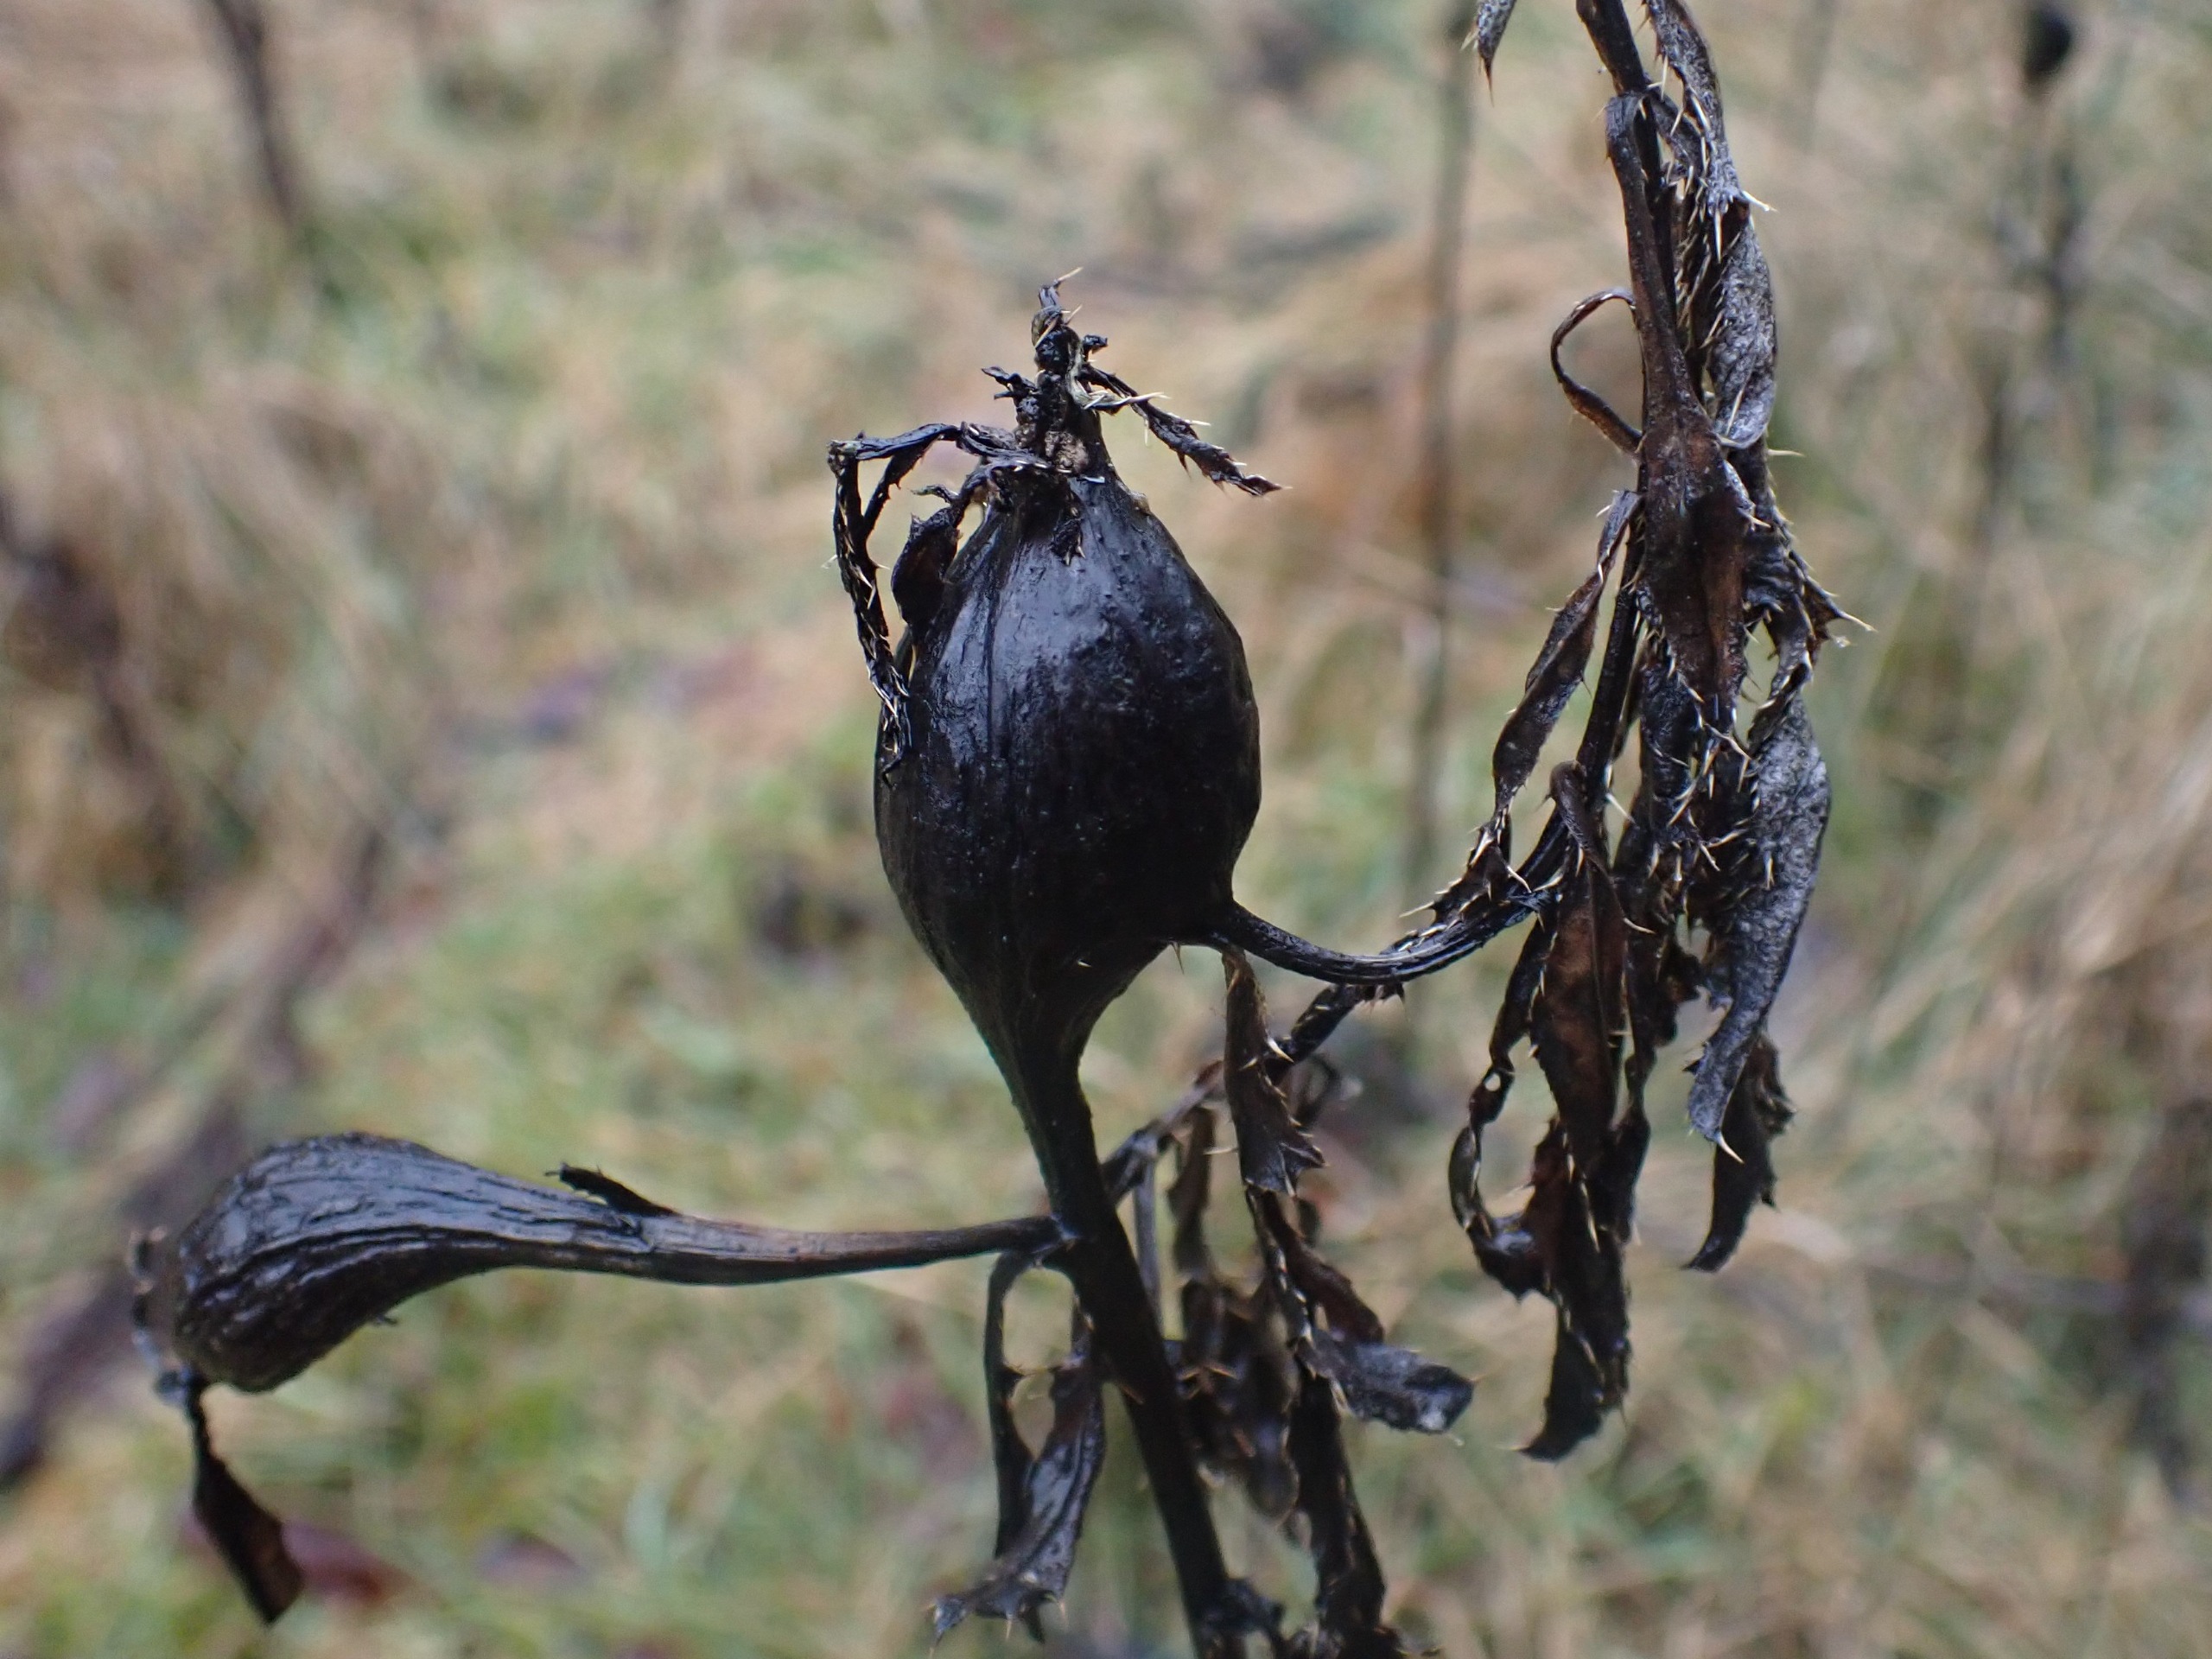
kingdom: Animalia
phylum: Arthropoda
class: Insecta
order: Diptera
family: Tephritidae
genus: Urophora
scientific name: Urophora cardui
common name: Tidselbåndflue
